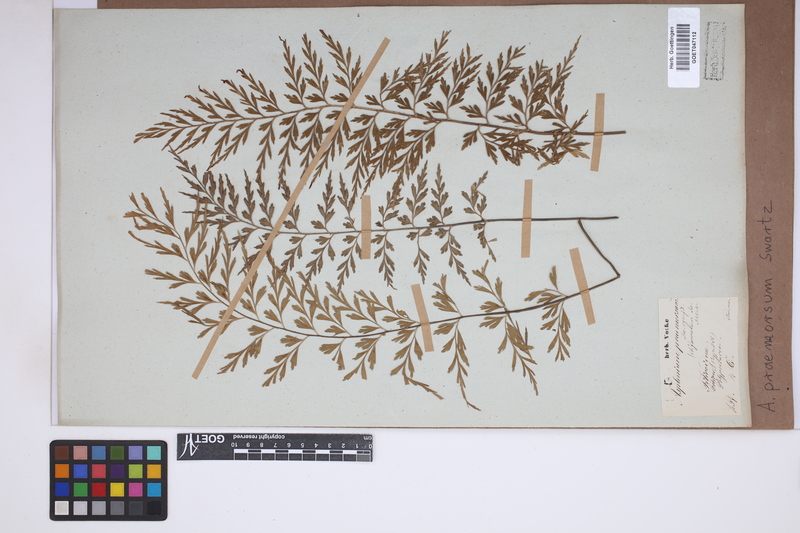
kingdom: Plantae
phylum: Tracheophyta
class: Polypodiopsida
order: Polypodiales
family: Aspleniaceae
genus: Asplenium
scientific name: Asplenium praemorsum
